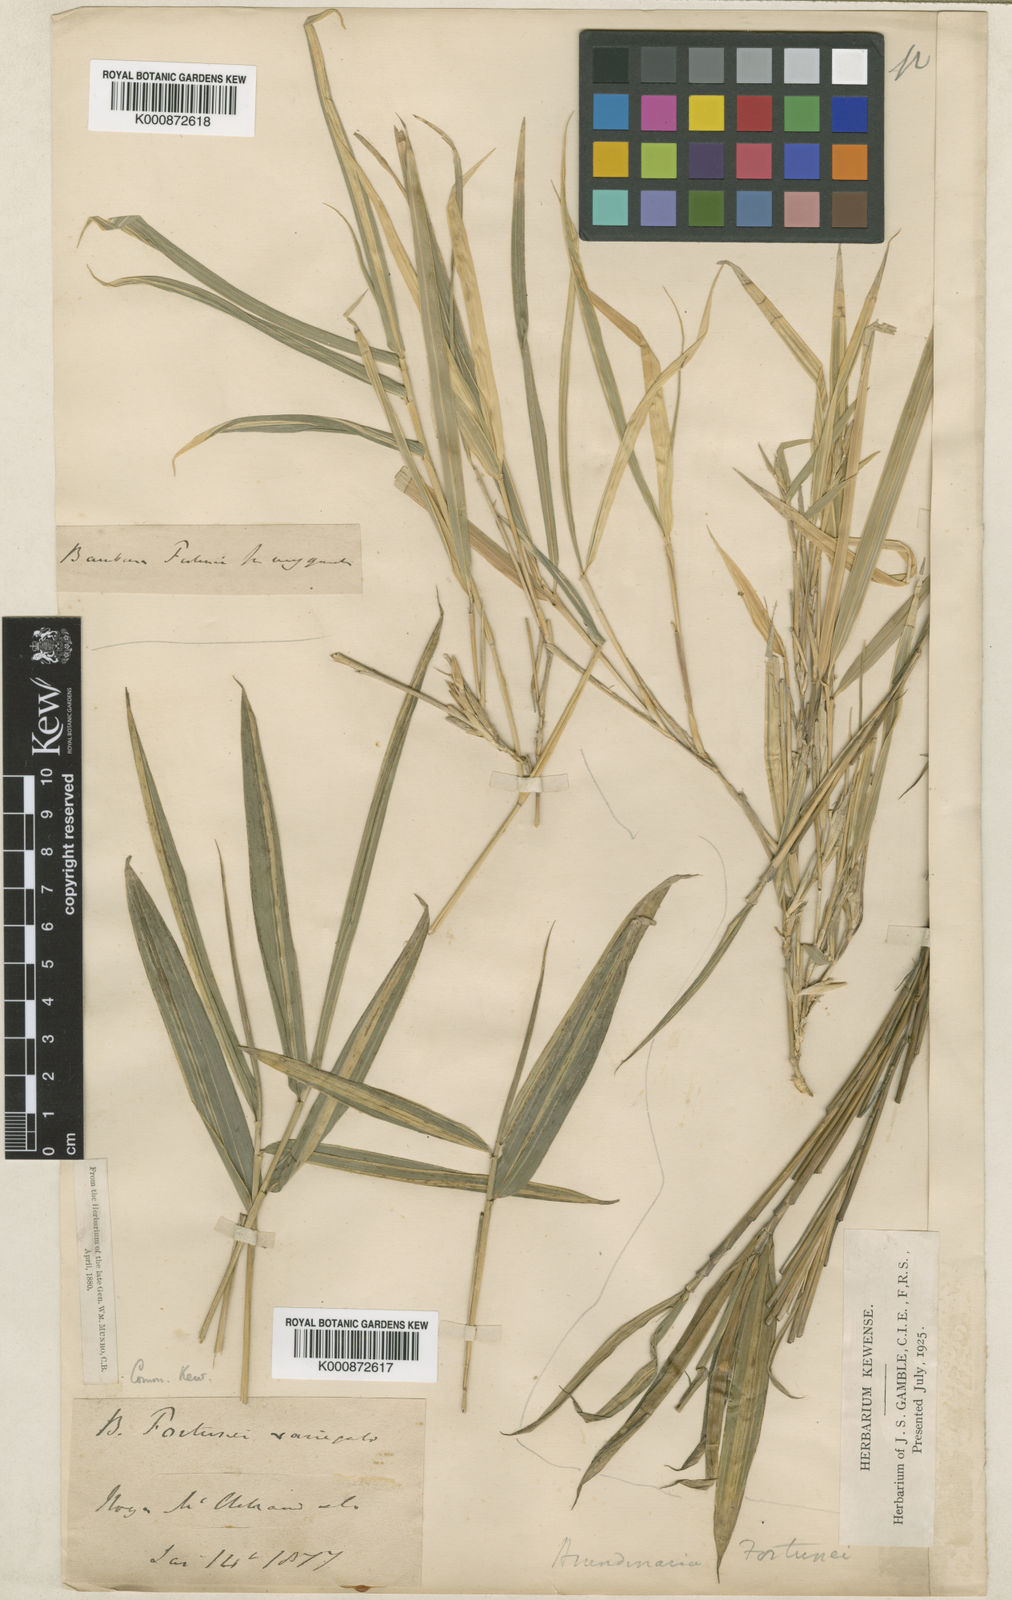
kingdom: Plantae
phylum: Tracheophyta
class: Liliopsida
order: Poales
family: Poaceae
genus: Arundinaria
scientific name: Arundinaria
